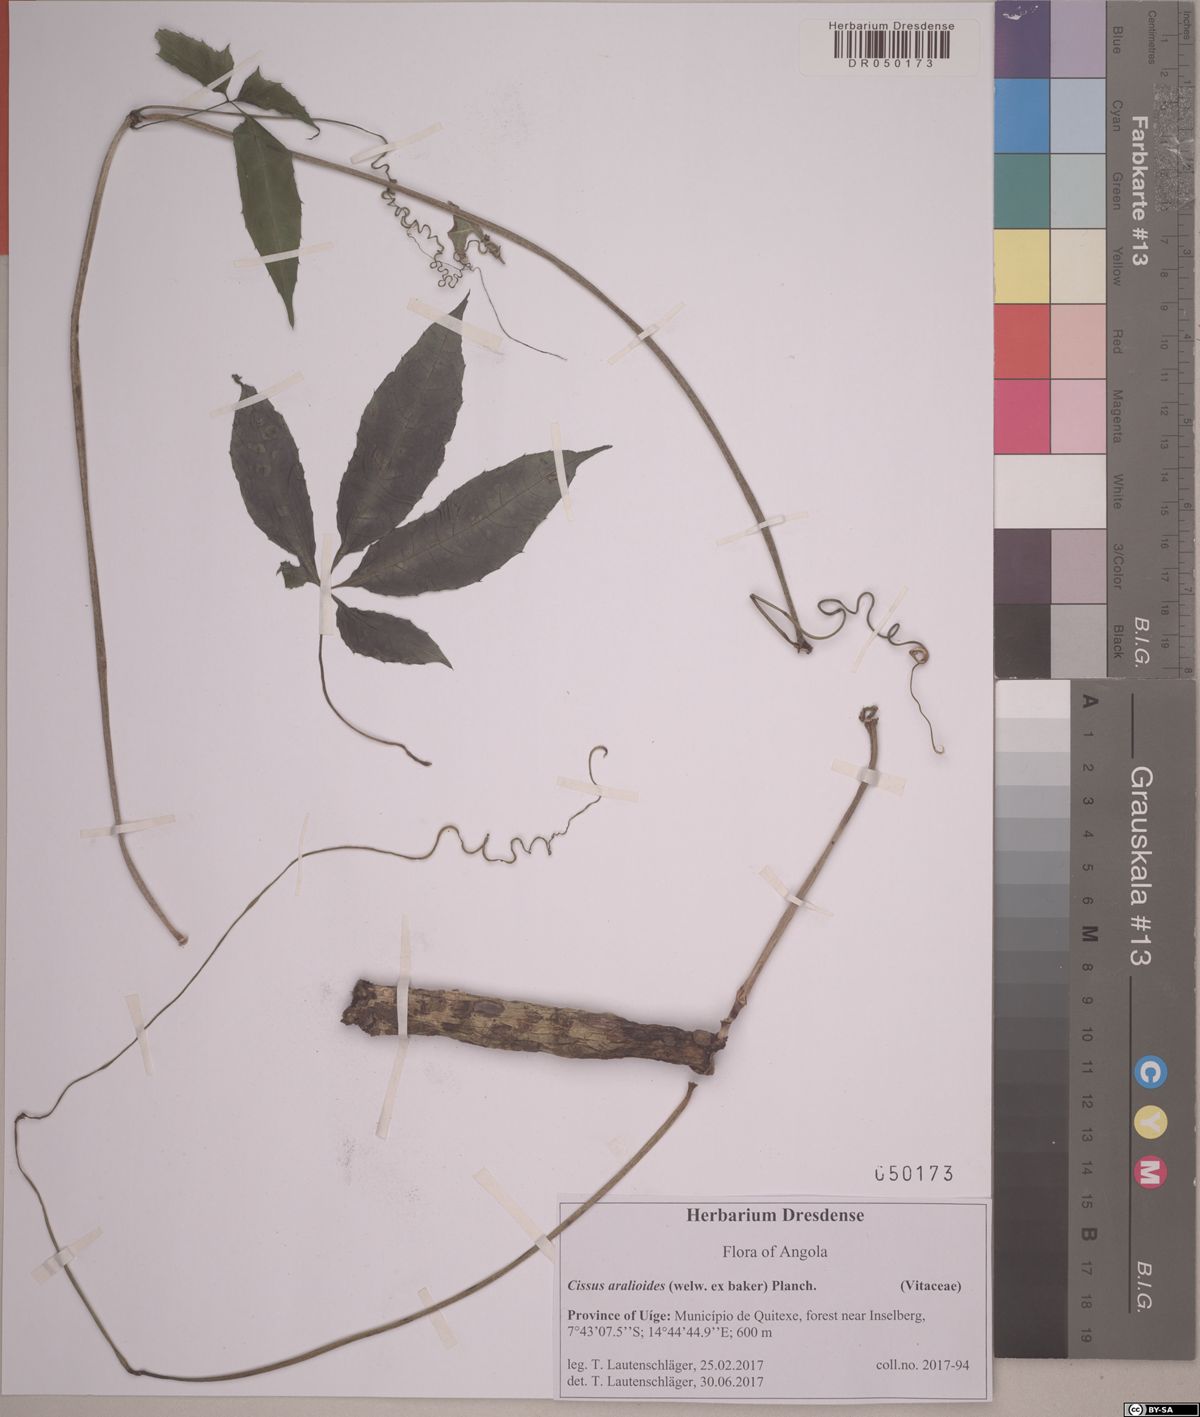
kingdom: Plantae
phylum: Tracheophyta
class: Magnoliopsida
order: Vitales
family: Vitaceae
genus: Cissus
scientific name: Cissus aralioides
